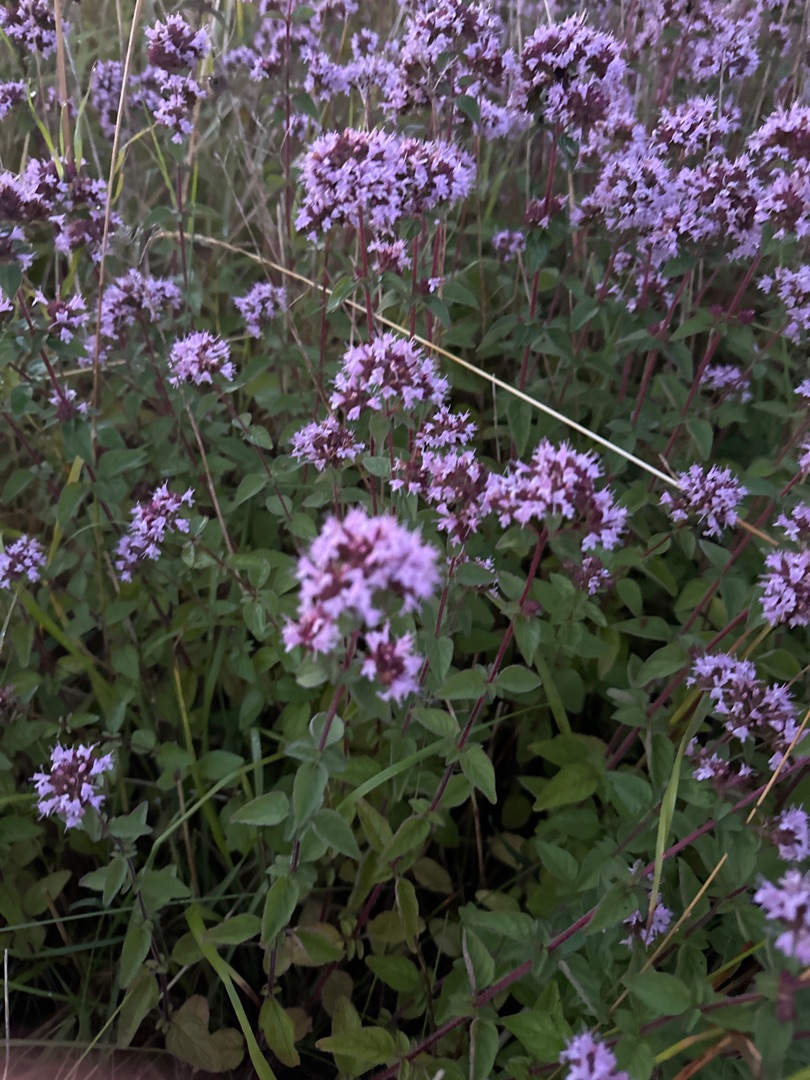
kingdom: Plantae
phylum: Tracheophyta
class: Magnoliopsida
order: Lamiales
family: Lamiaceae
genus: Origanum
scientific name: Origanum vulgare
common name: Merian
